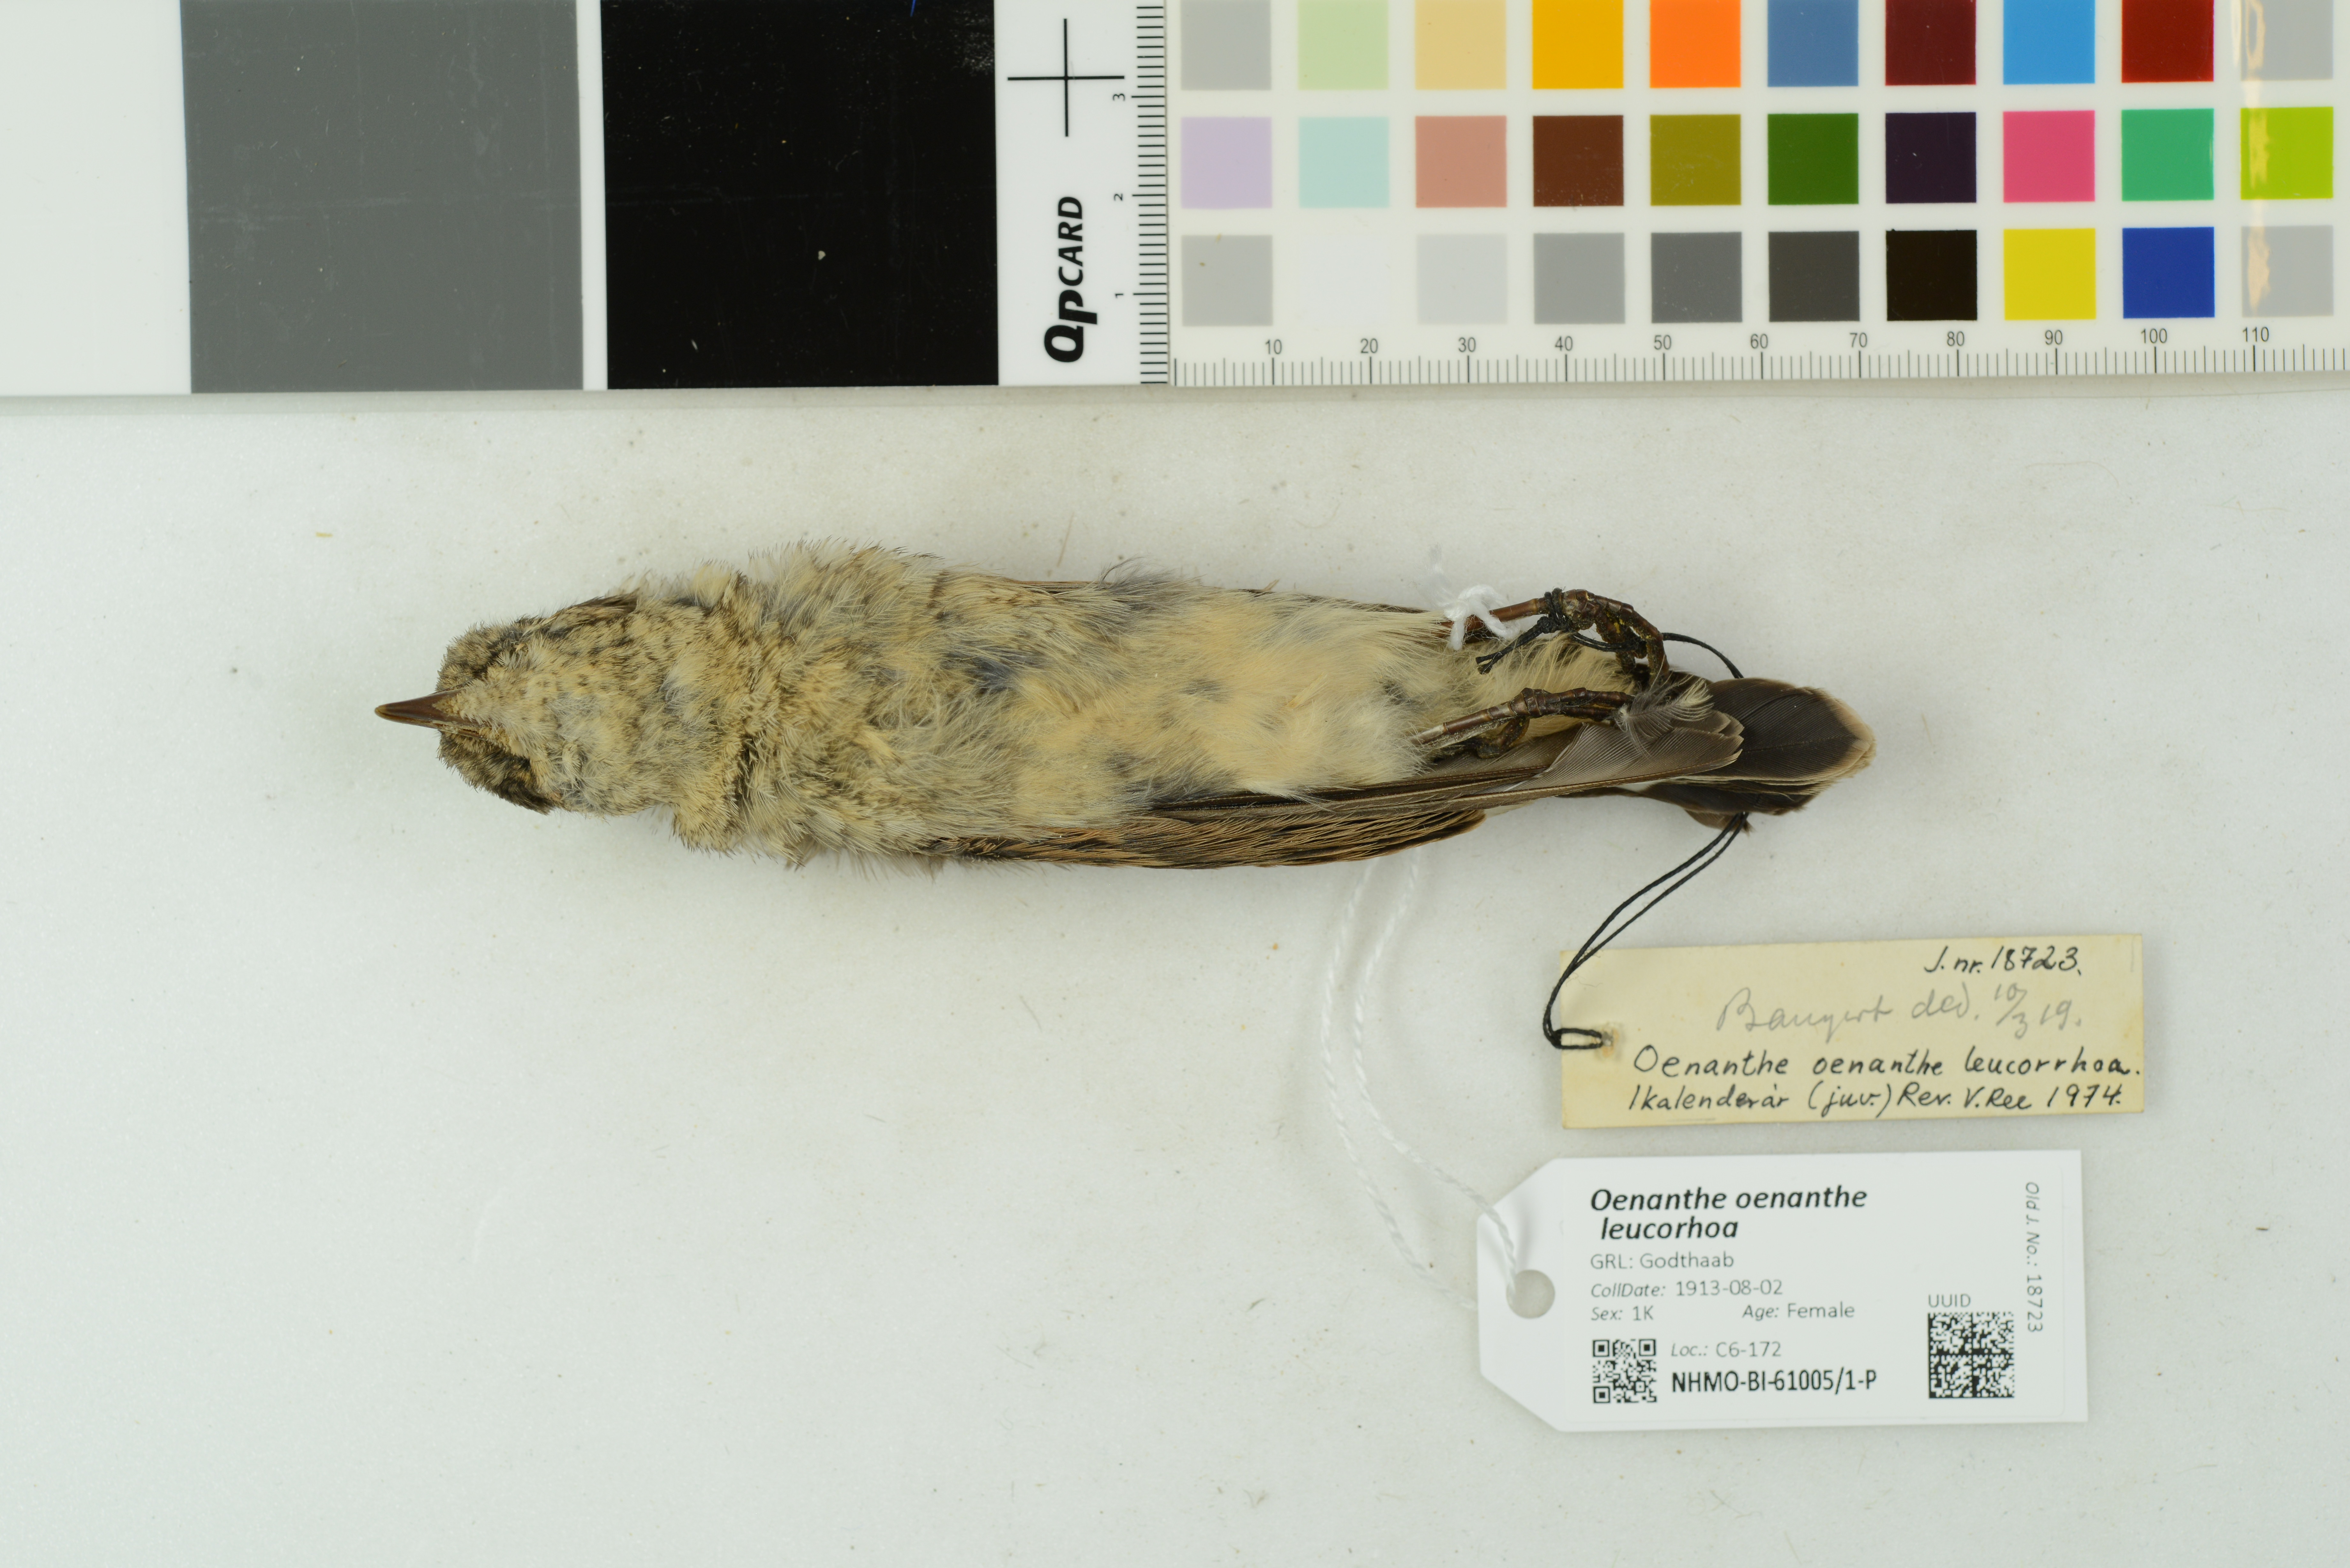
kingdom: Animalia
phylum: Chordata
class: Aves
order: Passeriformes
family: Muscicapidae
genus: Oenanthe
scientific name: Oenanthe oenanthe
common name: Northern wheatear
